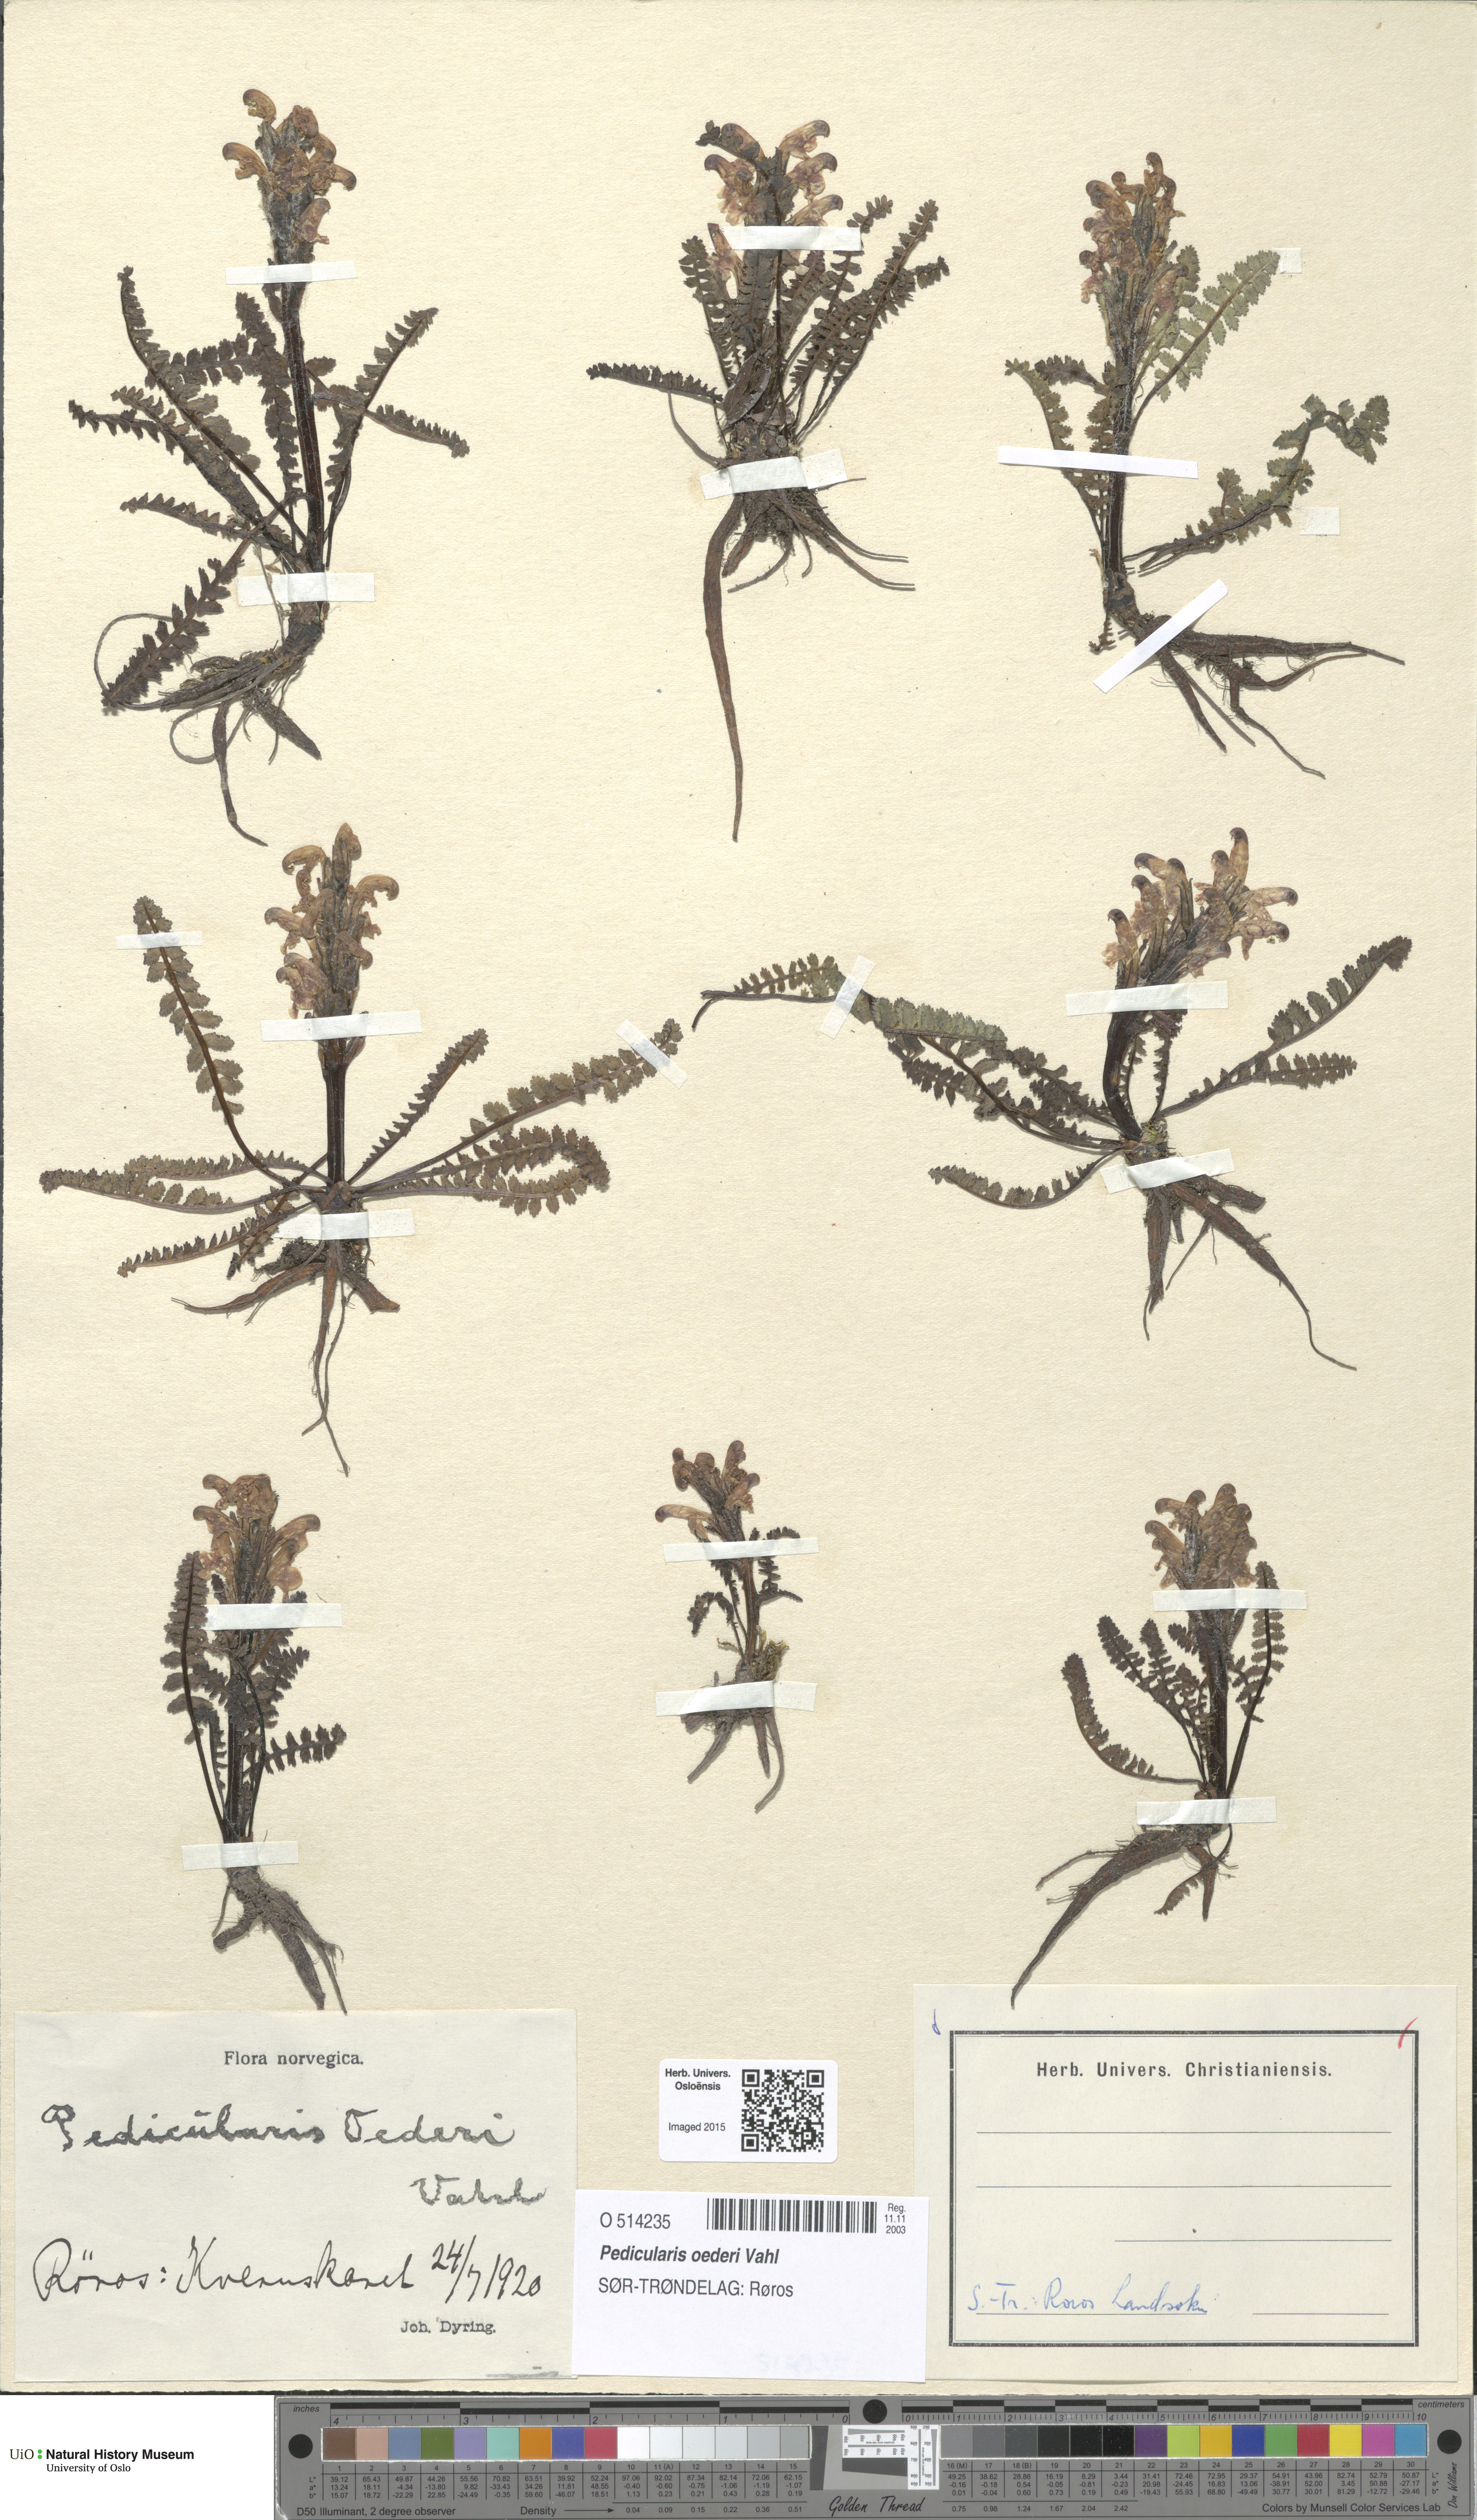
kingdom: Plantae
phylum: Tracheophyta
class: Magnoliopsida
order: Lamiales
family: Orobanchaceae
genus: Pedicularis
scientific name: Pedicularis oederi
